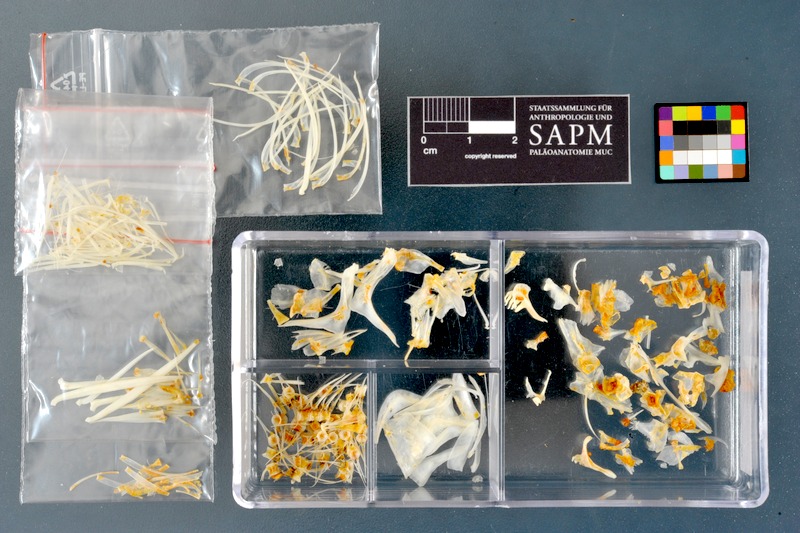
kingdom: Animalia
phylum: Chordata
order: Cypriniformes
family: Cyprinidae
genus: Acanthobrama
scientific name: Acanthobrama marmid
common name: Mesopotamian bream
